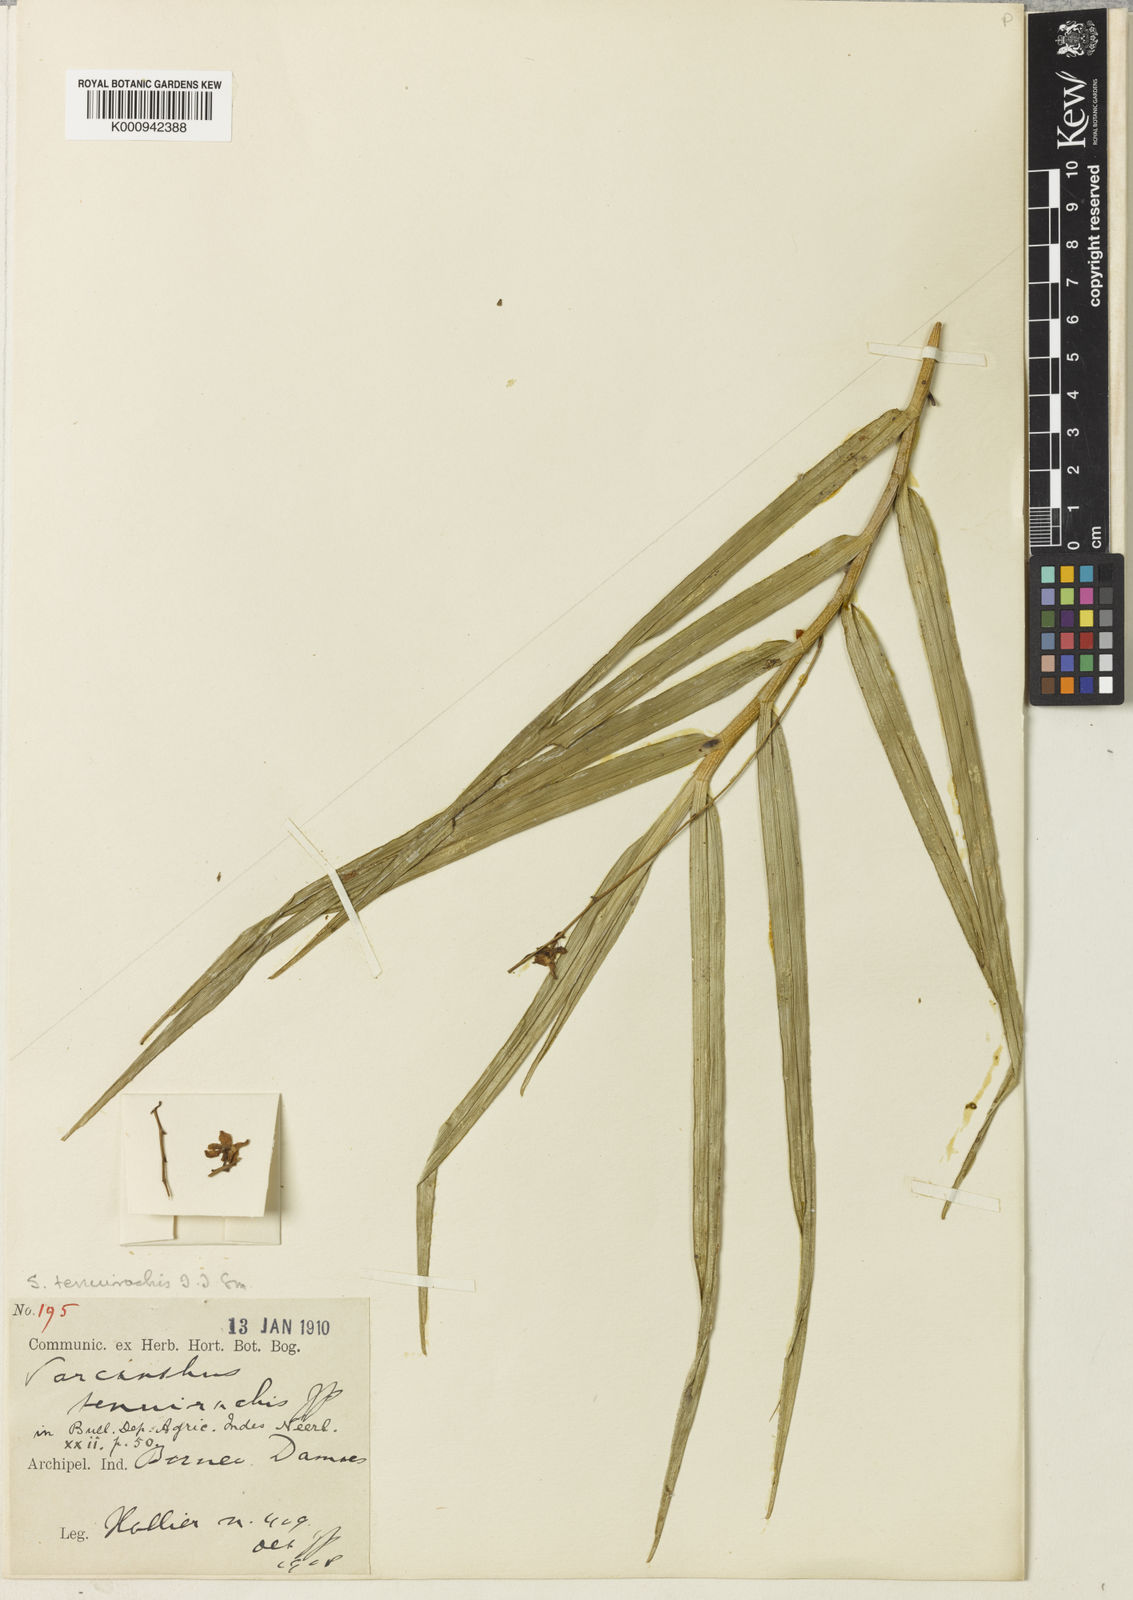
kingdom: Plantae
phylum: Tracheophyta
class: Liliopsida
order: Asparagales
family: Orchidaceae
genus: Cleisostoma
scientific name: Cleisostoma tenuirachis
